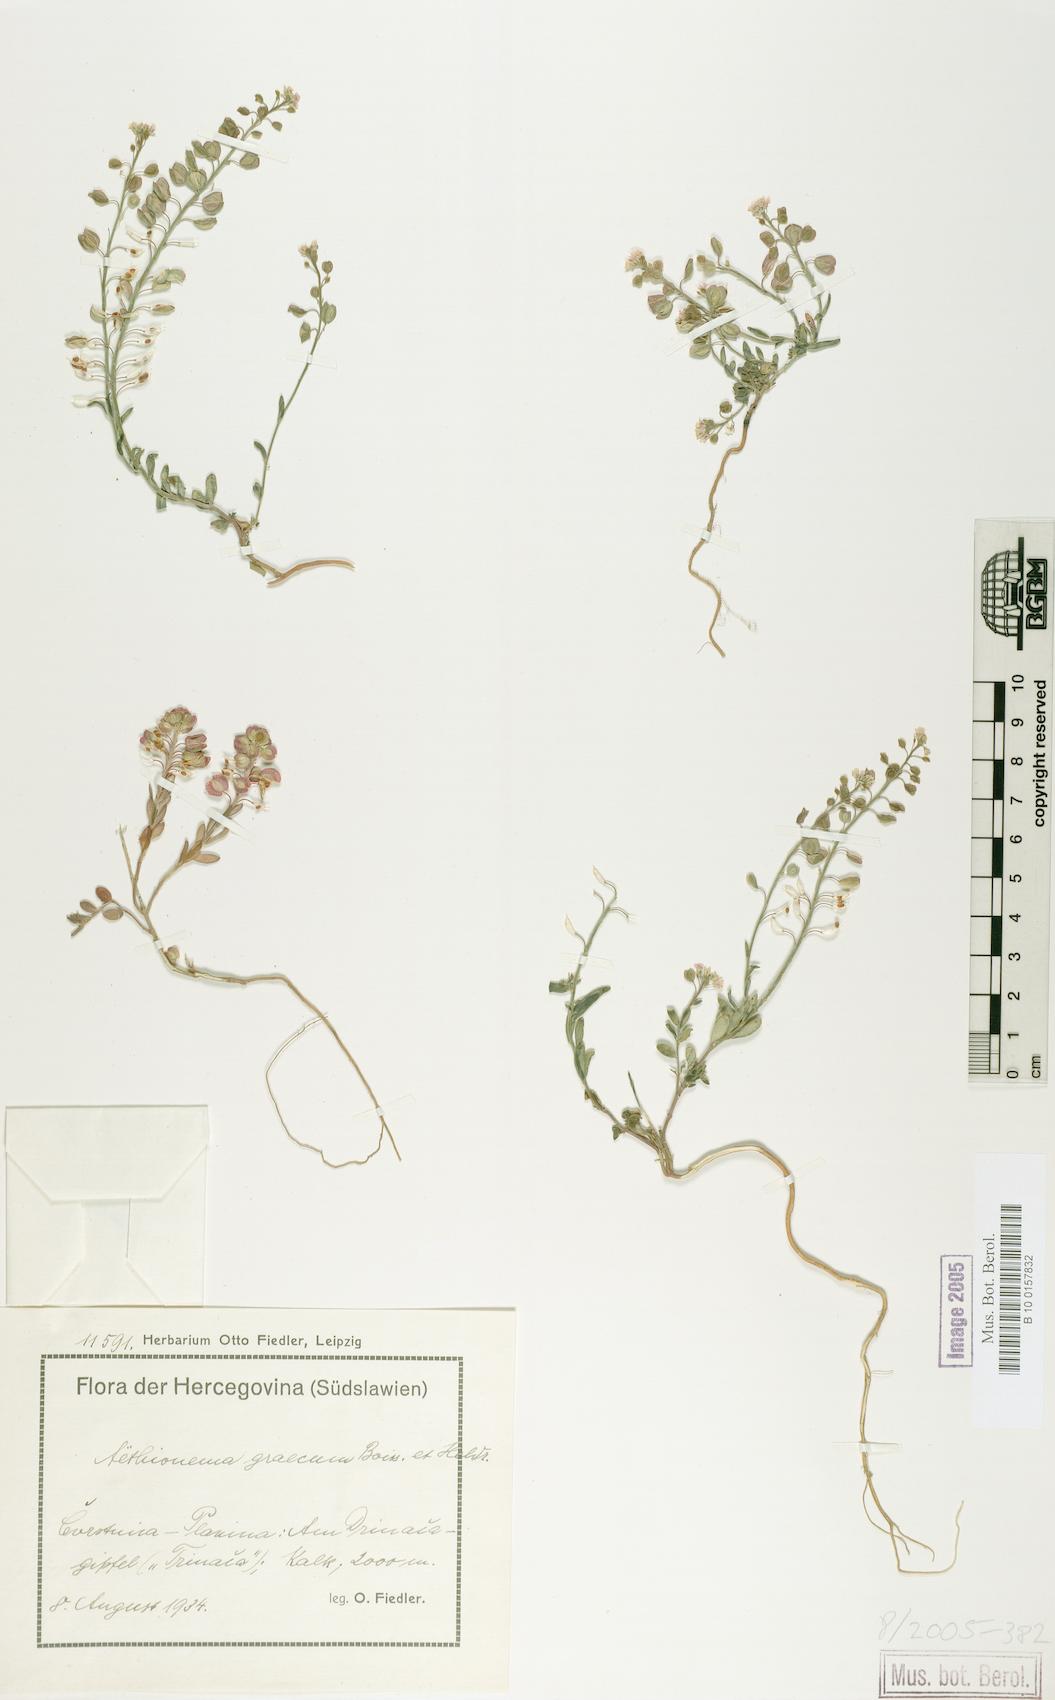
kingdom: Plantae
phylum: Tracheophyta
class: Magnoliopsida
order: Brassicales
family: Brassicaceae
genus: Aethionema
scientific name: Aethionema saxatile
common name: Burnt candytuft
